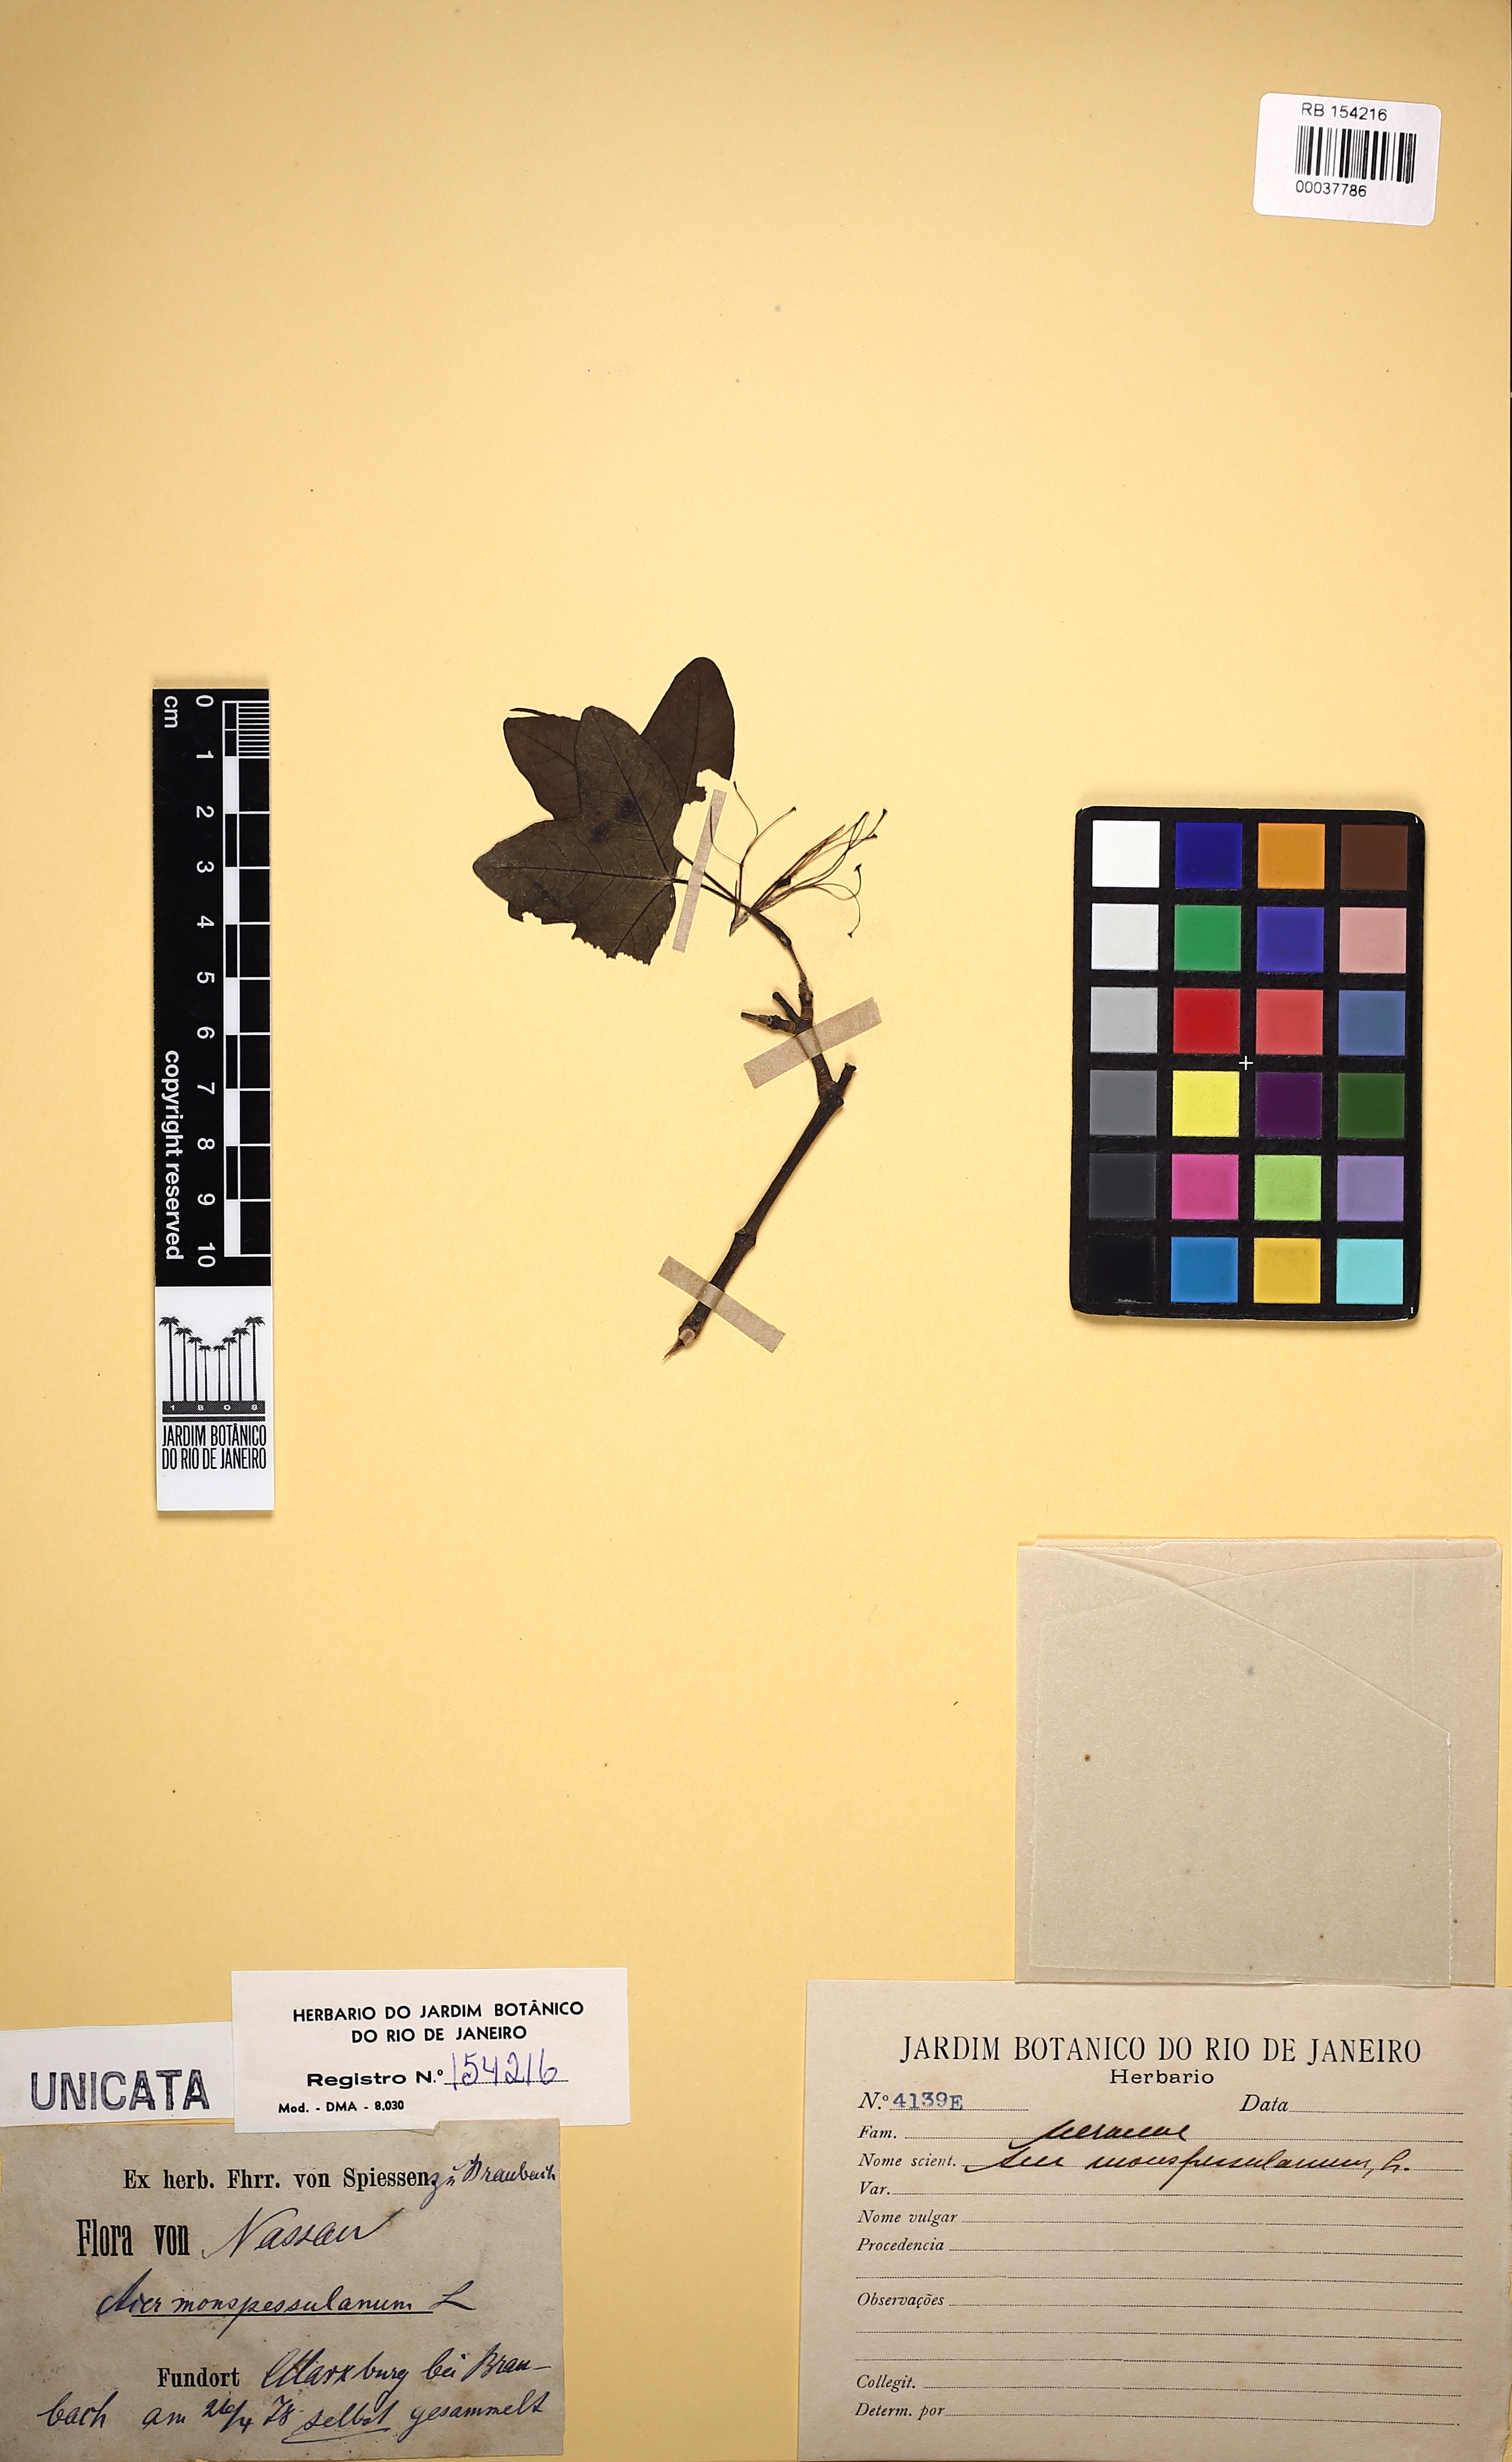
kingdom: Plantae
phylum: Tracheophyta
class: Magnoliopsida
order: Sapindales
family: Sapindaceae
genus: Acer
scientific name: Acer monspessulanum
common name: Montpellier maple
